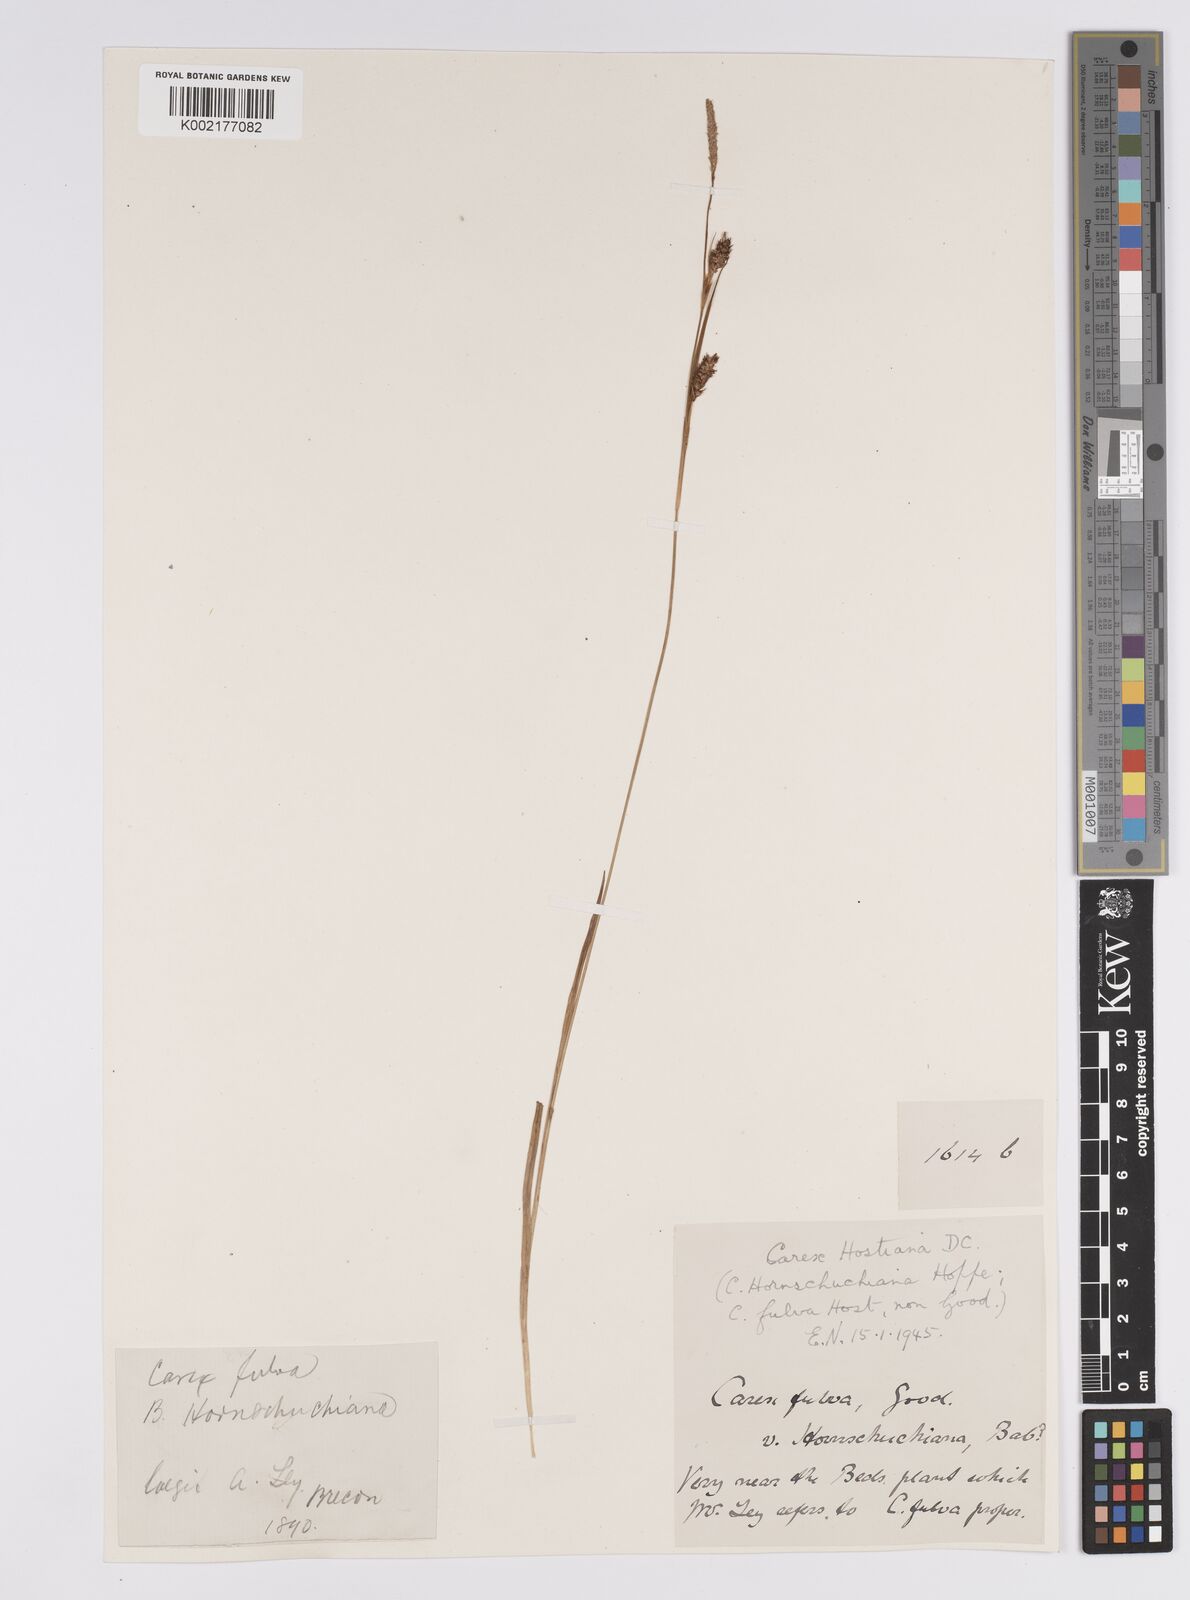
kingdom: Plantae
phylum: Tracheophyta
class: Liliopsida
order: Poales
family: Cyperaceae
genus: Carex
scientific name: Carex hostiana
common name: Tawny sedge
